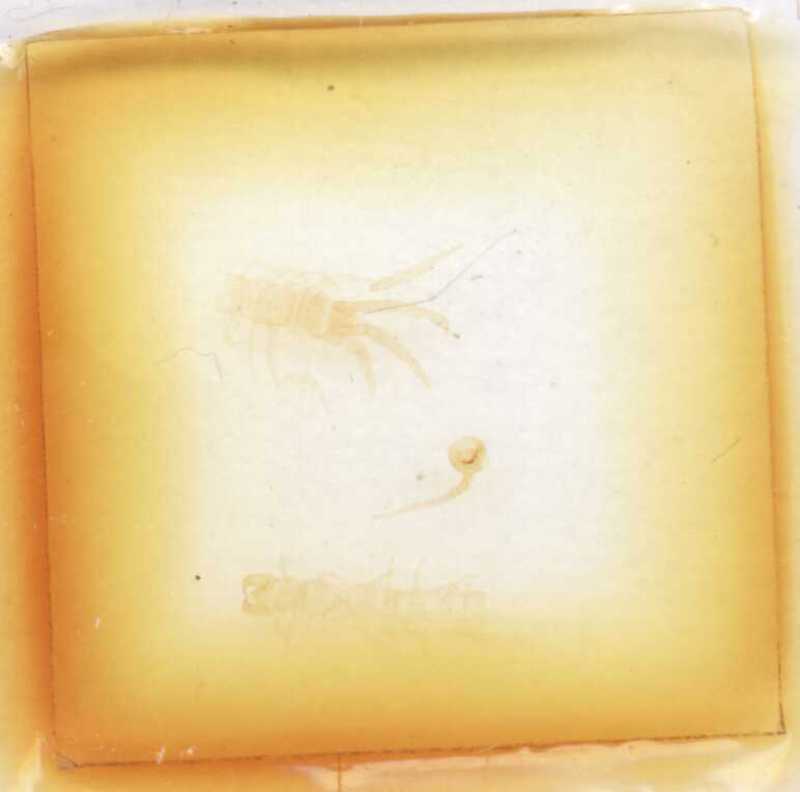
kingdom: Animalia
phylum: Arthropoda
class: Chilopoda
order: Lithobiomorpha
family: Lithobiidae
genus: Monotarsobius
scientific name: Monotarsobius
